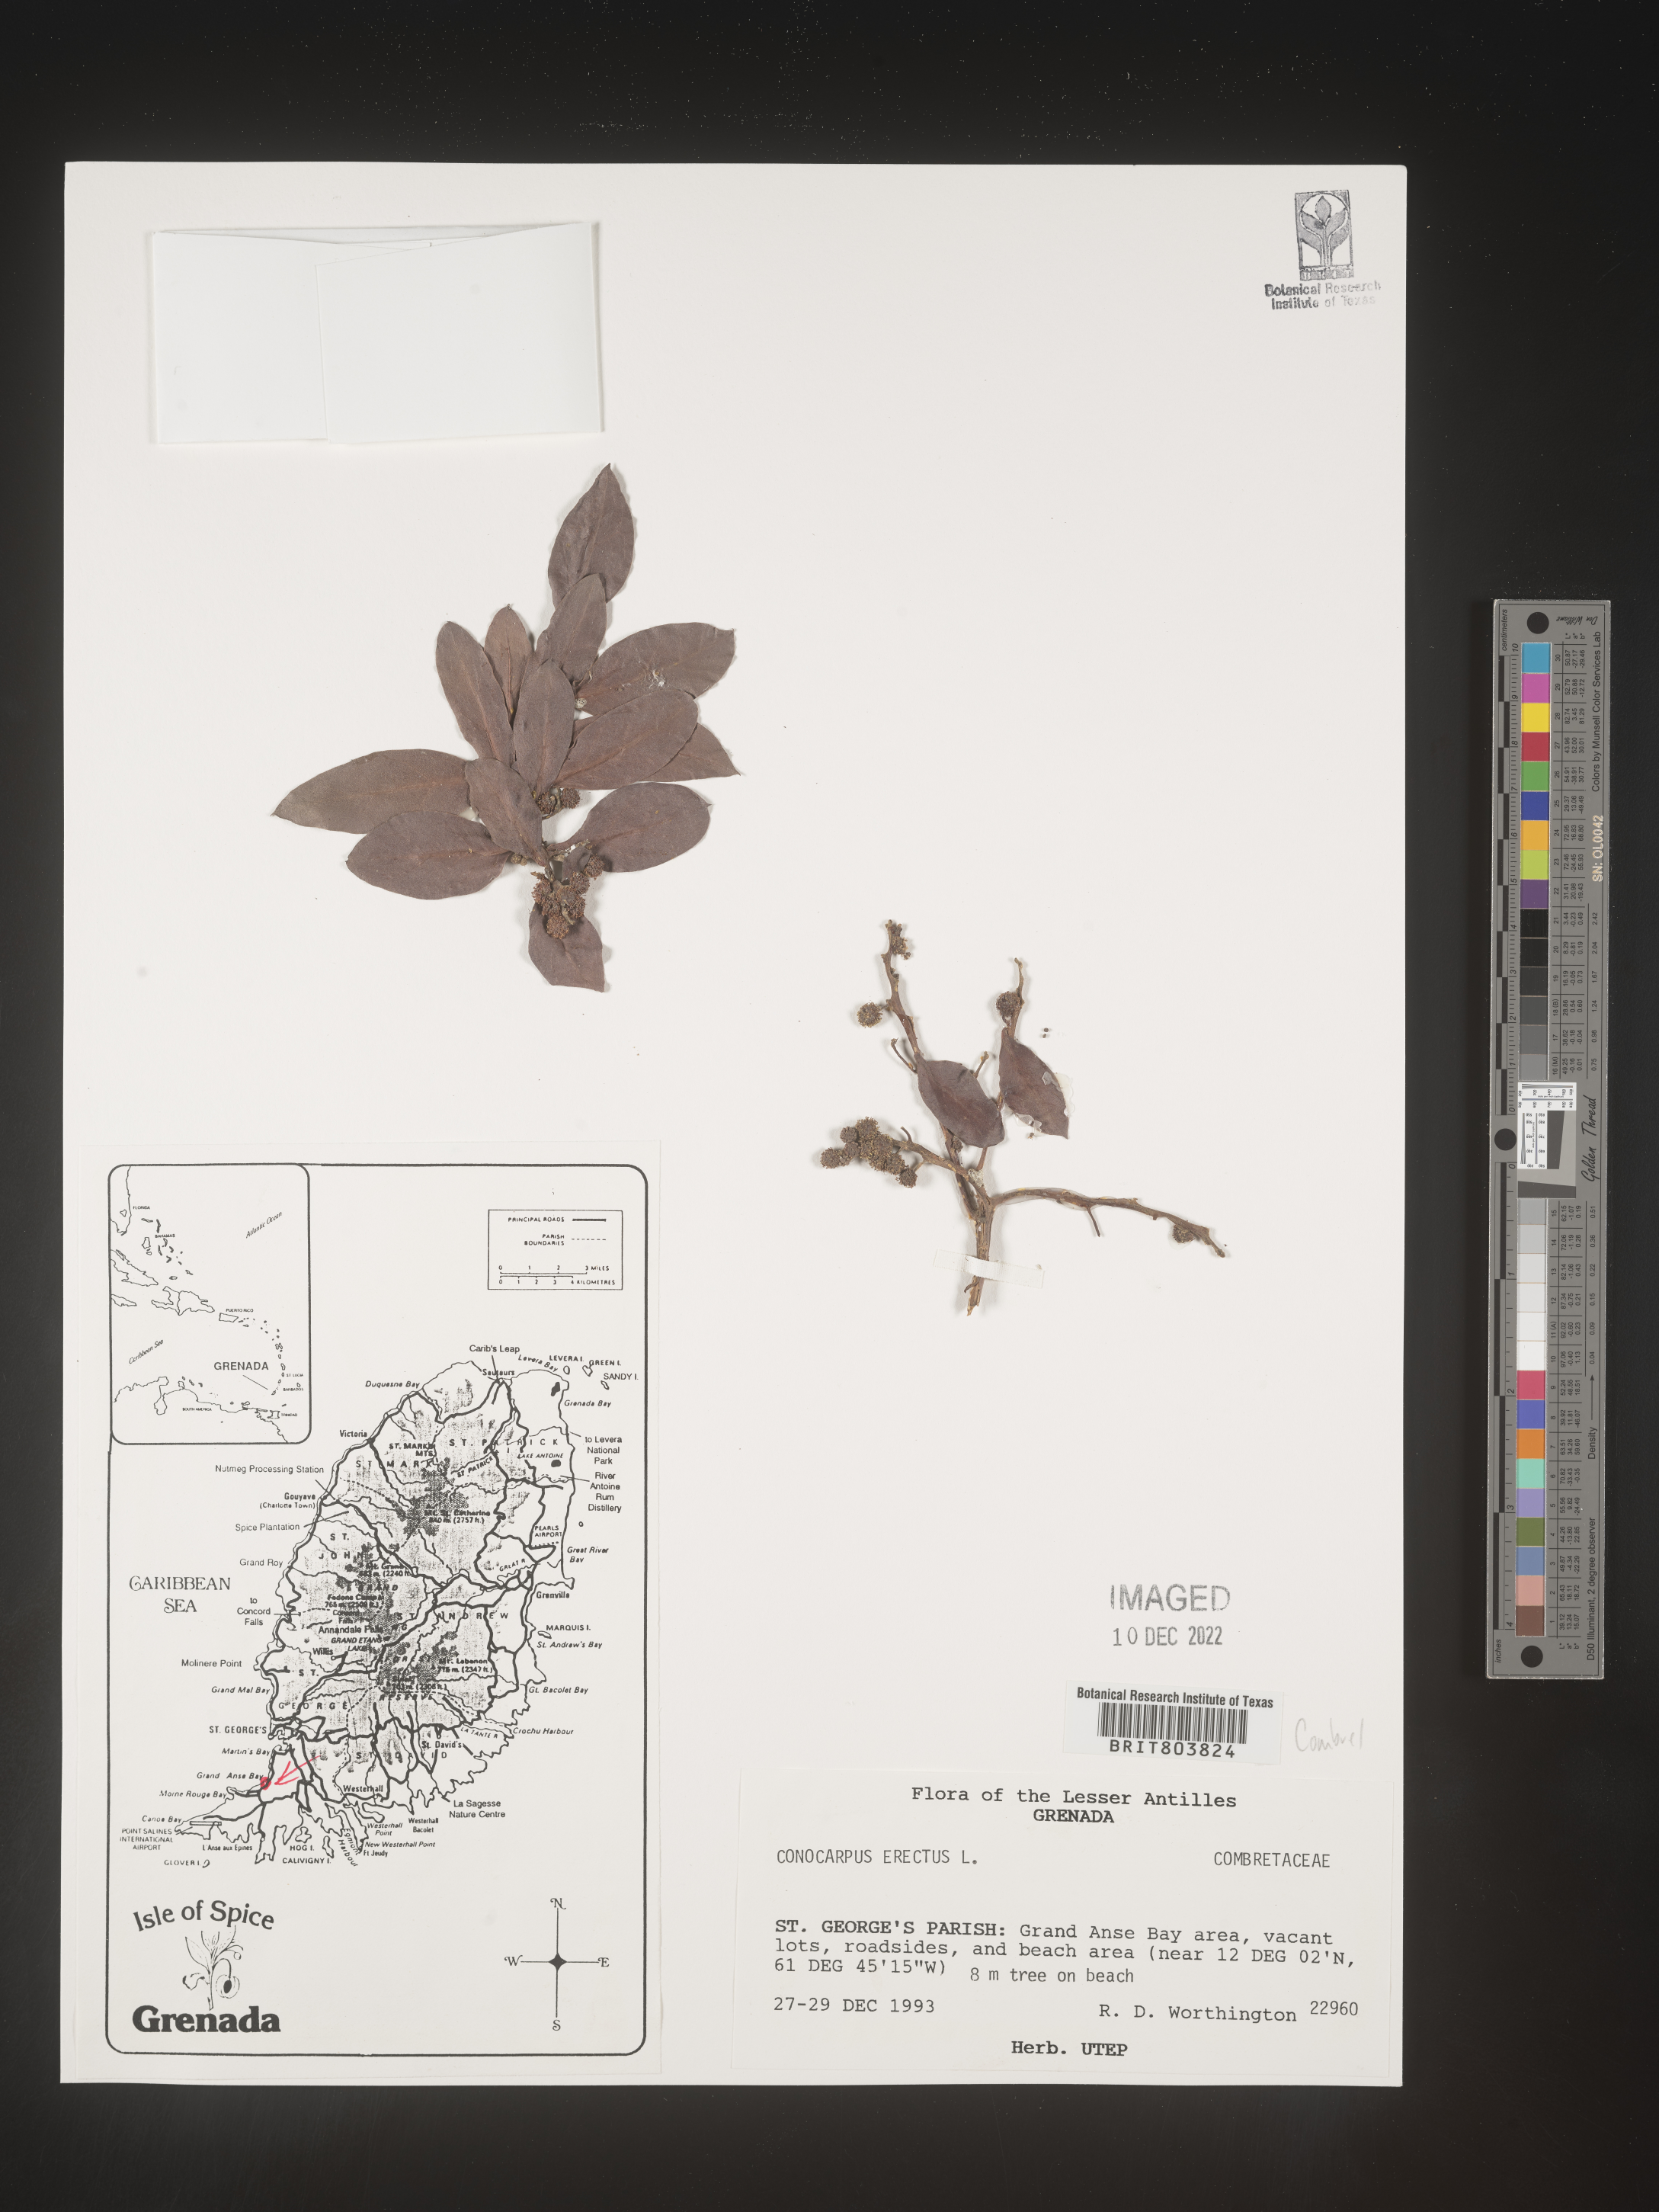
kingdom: Plantae
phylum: Tracheophyta
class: Magnoliopsida
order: Myrtales
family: Combretaceae
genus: Conocarpus
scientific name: Conocarpus
